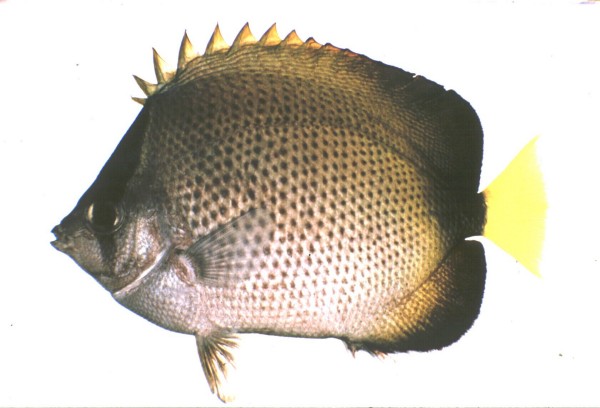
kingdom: Animalia
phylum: Chordata
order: Perciformes
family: Chaetodontidae
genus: Chaetodon
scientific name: Chaetodon dolosus
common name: African butterflyfish
